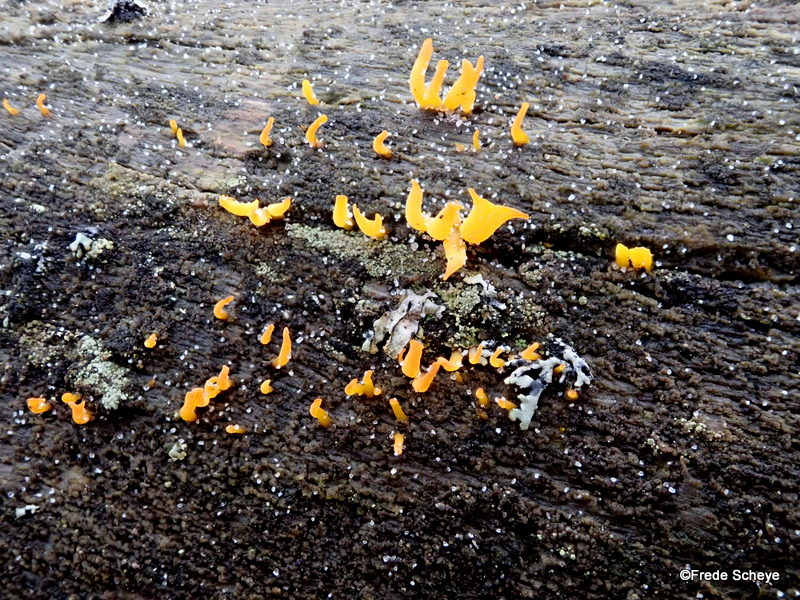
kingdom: Fungi
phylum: Basidiomycota
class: Dacrymycetes
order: Dacrymycetales
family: Dacrymycetaceae
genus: Calocera
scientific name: Calocera
